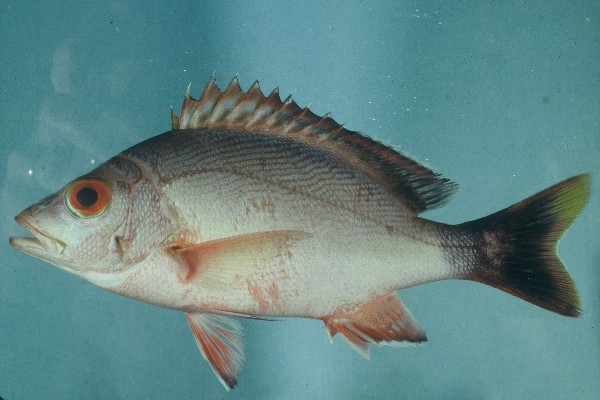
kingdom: Animalia
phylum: Chordata
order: Perciformes
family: Lutjanidae
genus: Lutjanus
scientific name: Lutjanus gibbus
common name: Humpback snapper
